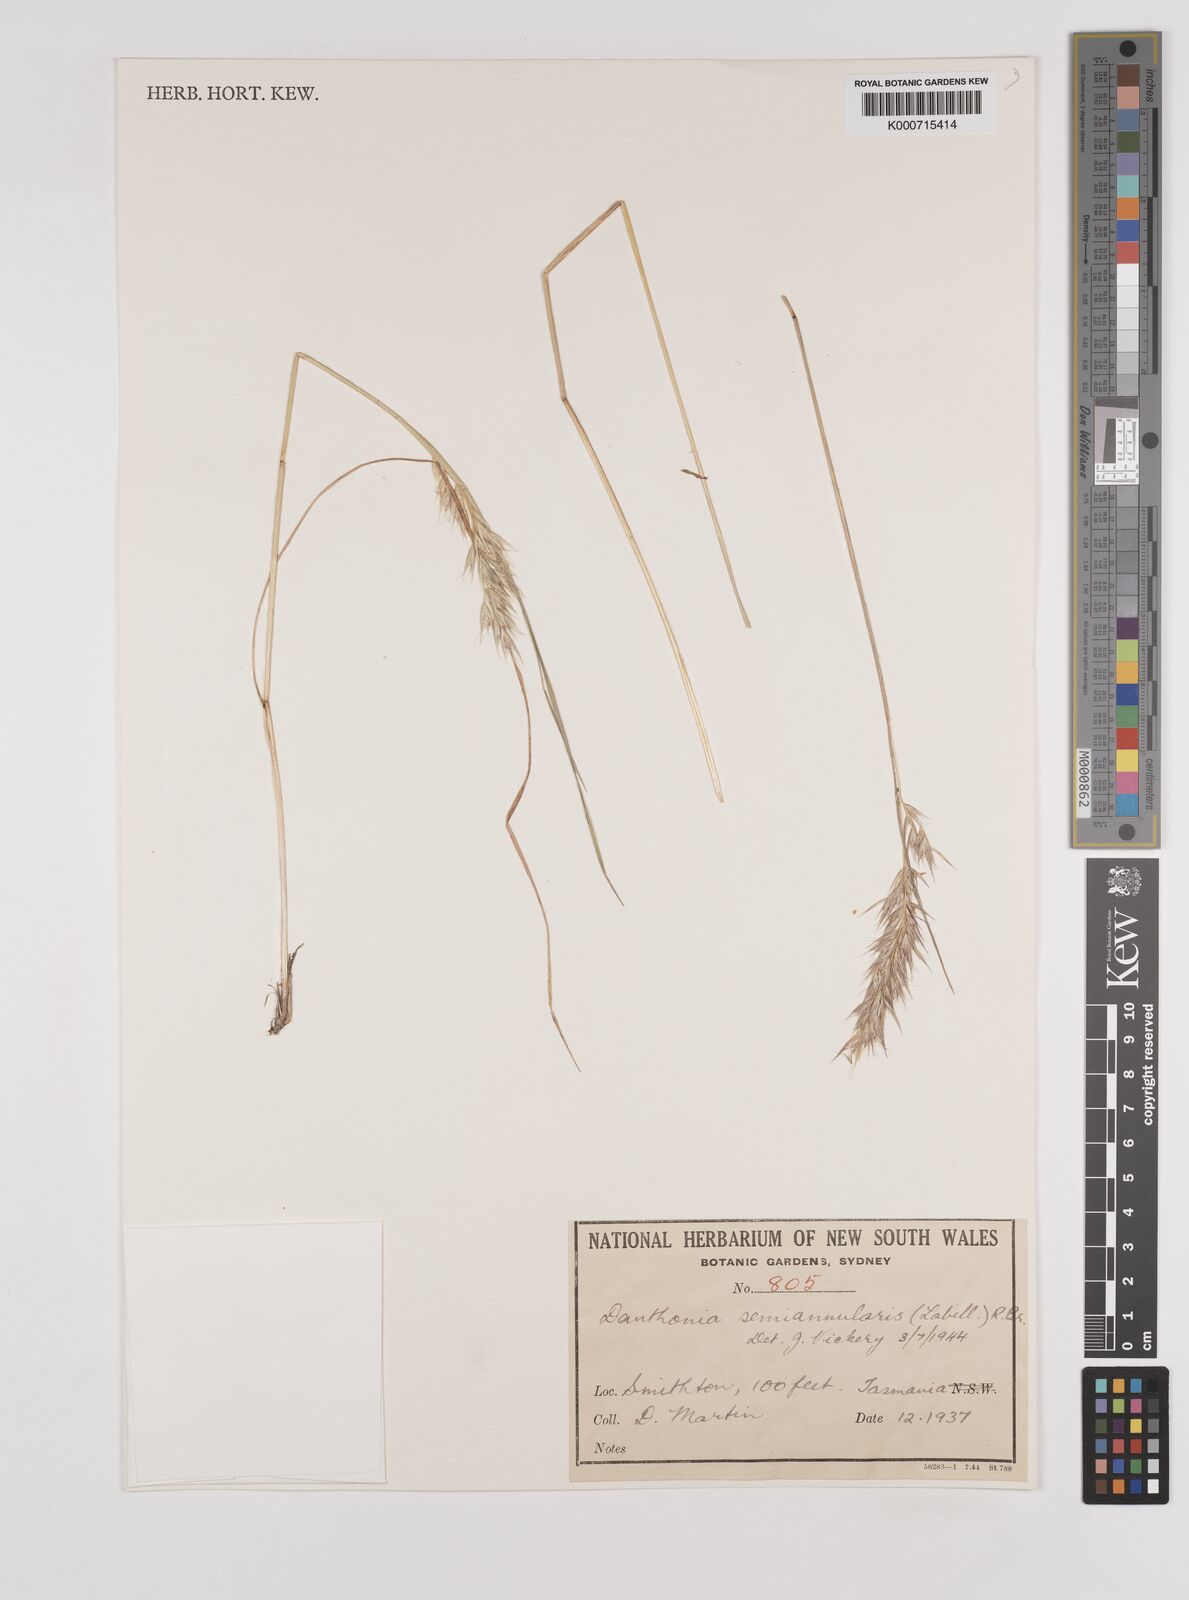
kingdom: Plantae
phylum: Tracheophyta
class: Liliopsida
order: Poales
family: Poaceae
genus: Rytidosperma
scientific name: Rytidosperma semiannulare
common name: Tasmanian wallaby grass
